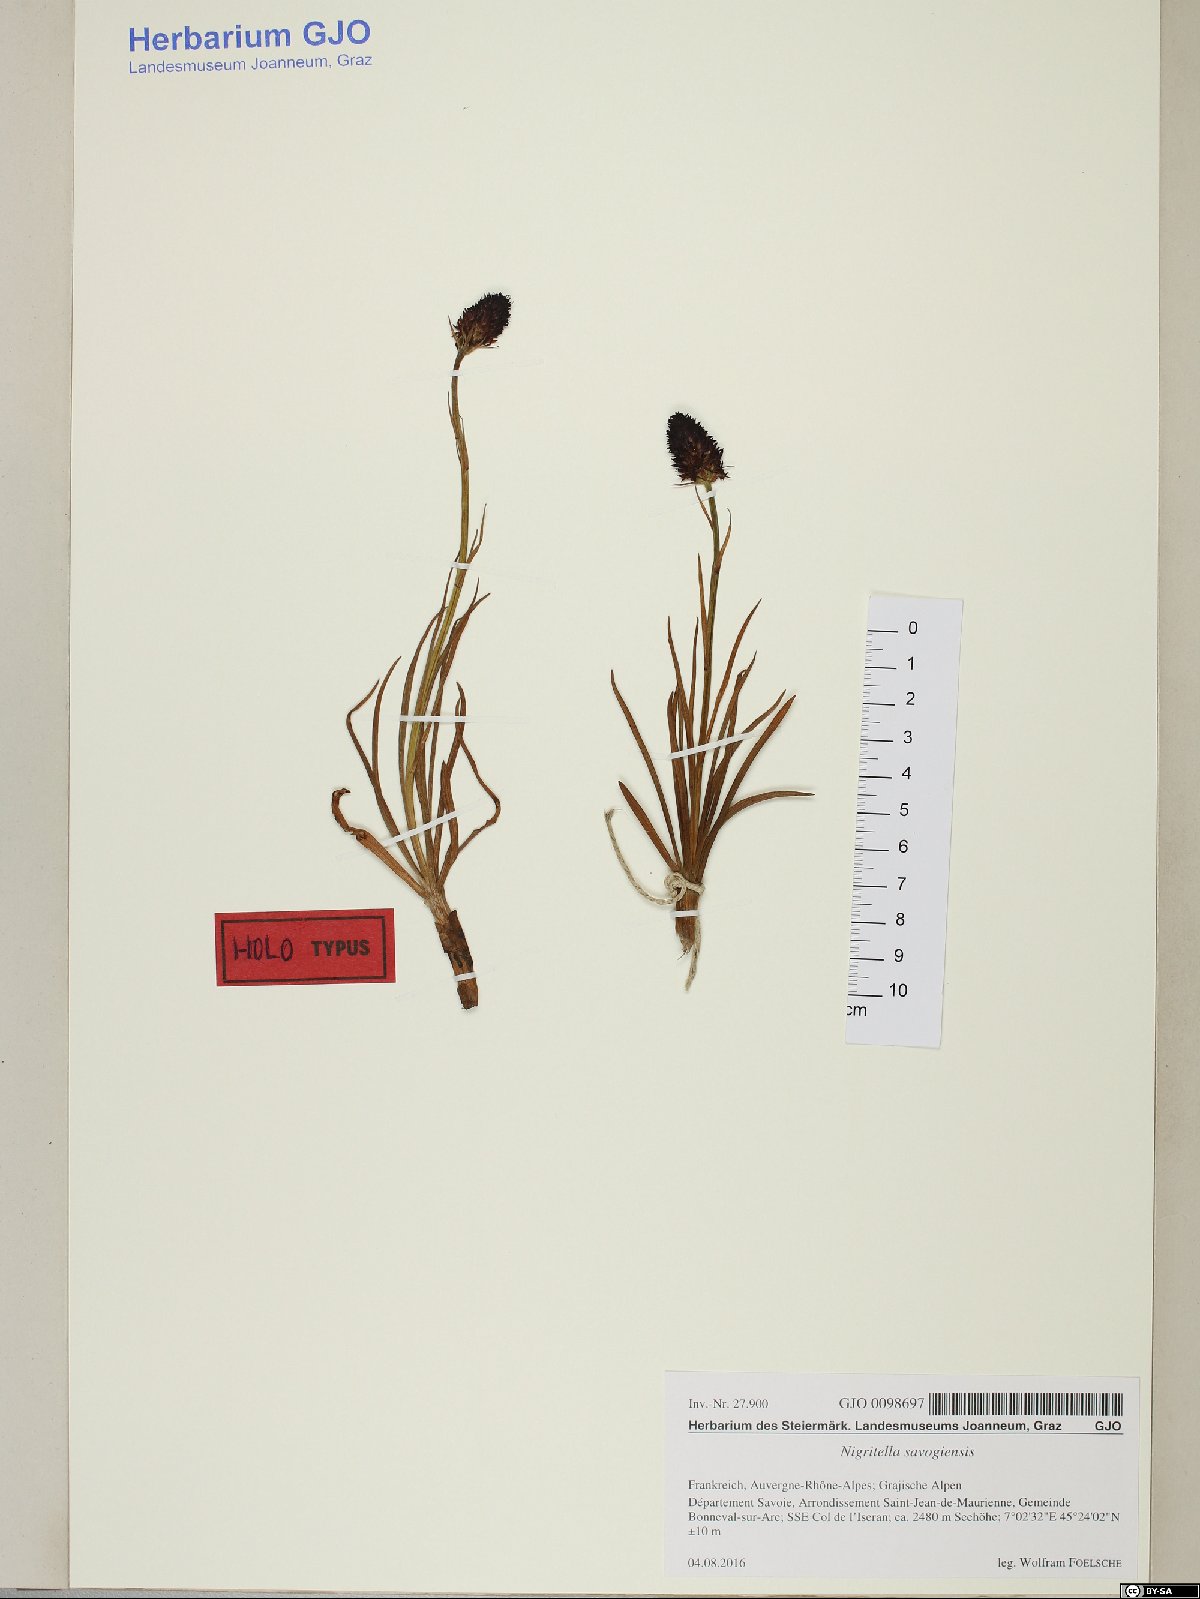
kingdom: Animalia
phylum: Mollusca
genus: Nigritella
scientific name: Nigritella
